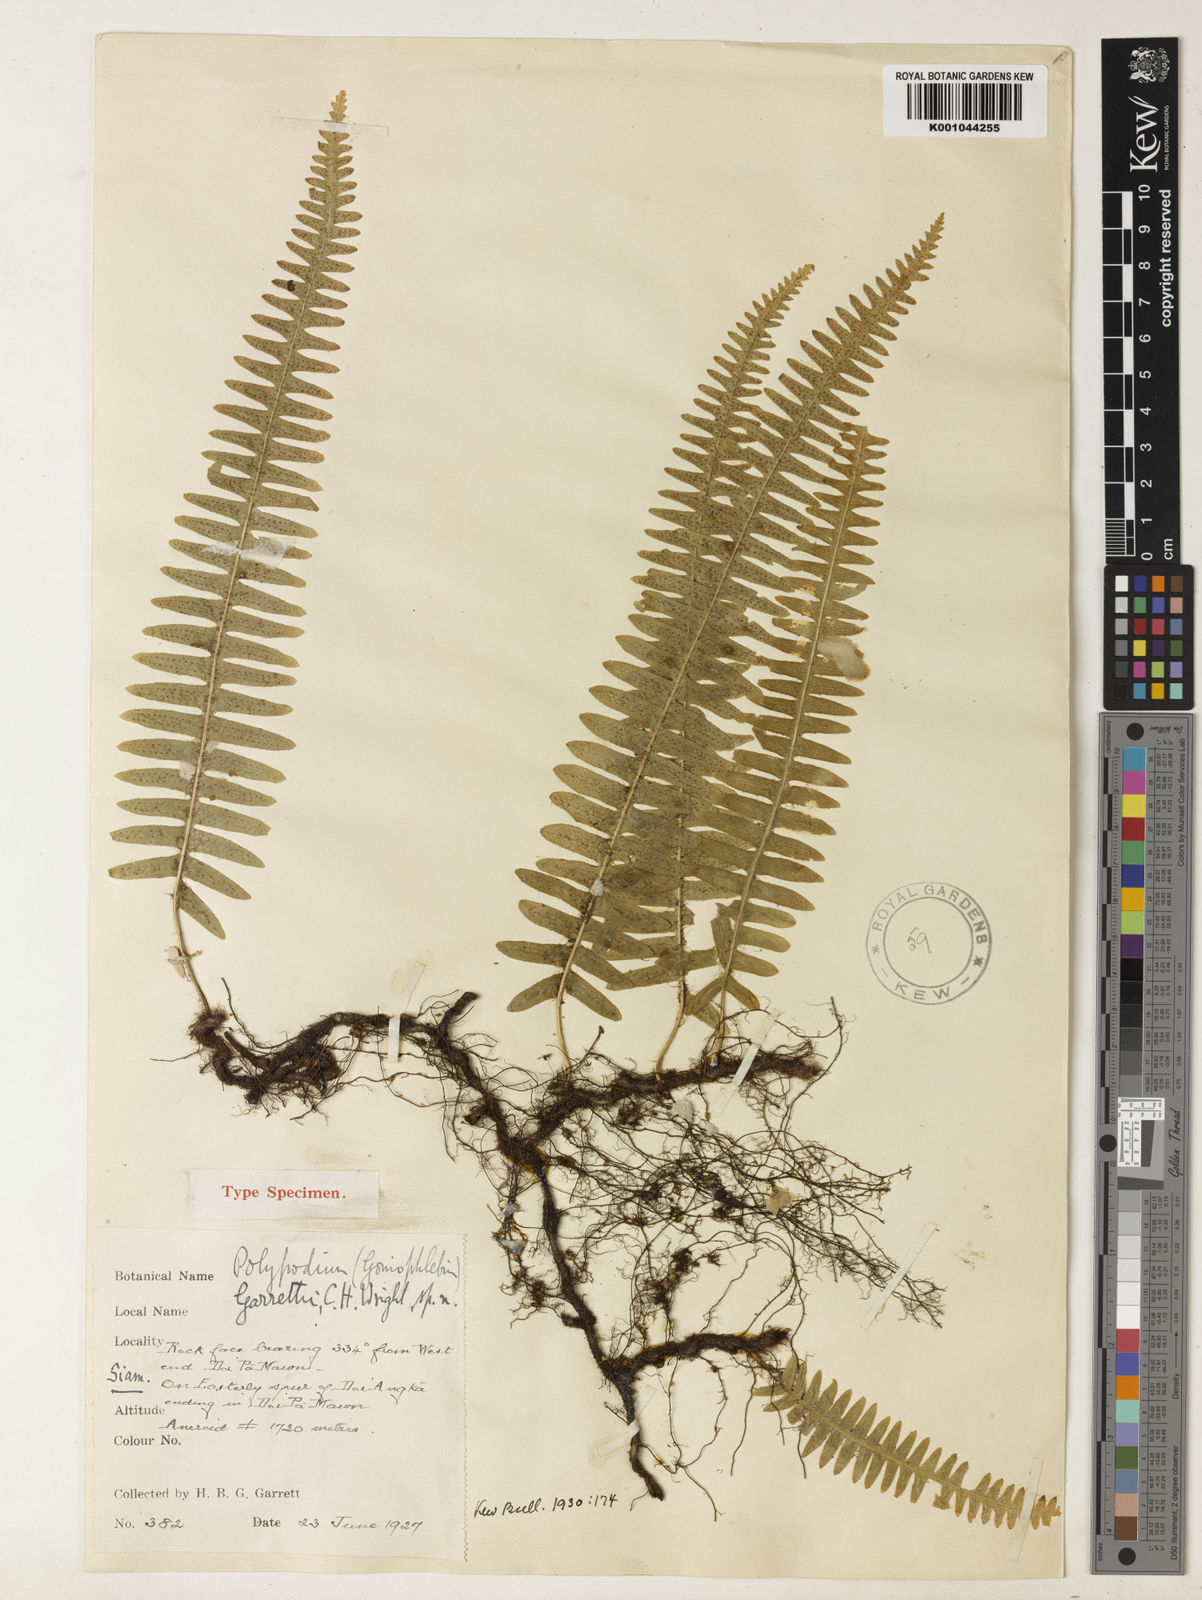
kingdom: Plantae
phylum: Tracheophyta
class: Polypodiopsida
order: Polypodiales
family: Polypodiaceae
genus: Goniophlebium
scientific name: Goniophlebium lachnopus
